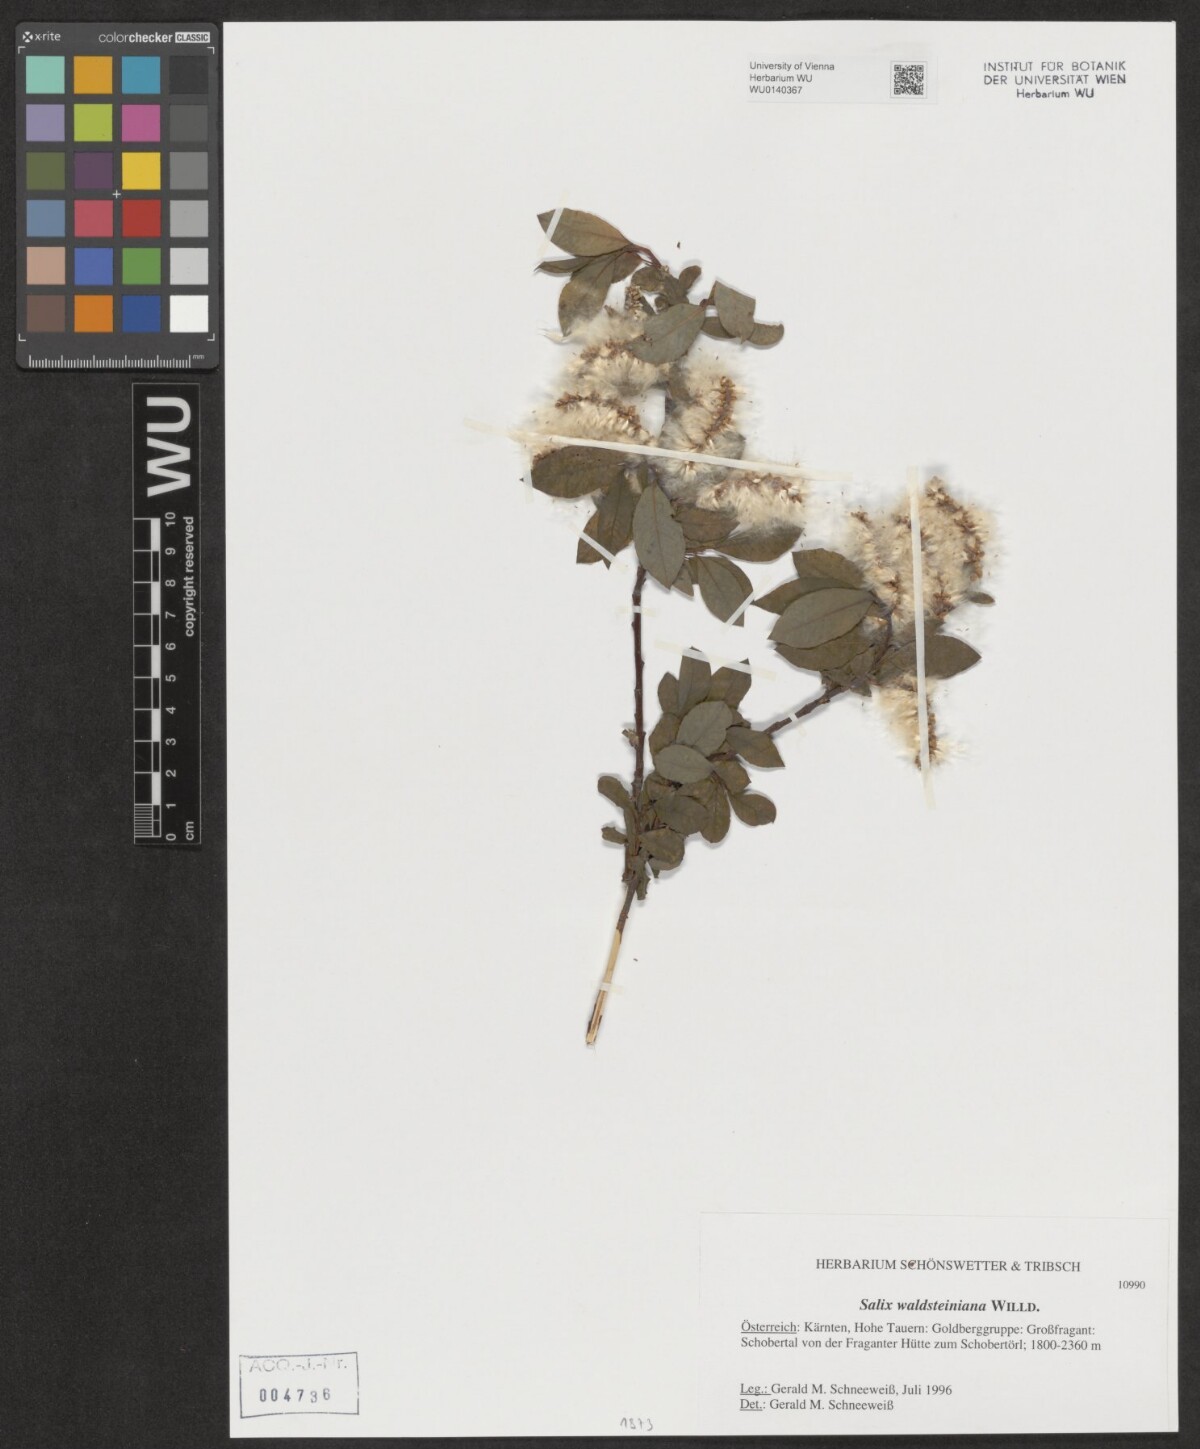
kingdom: Plantae
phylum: Tracheophyta
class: Magnoliopsida
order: Malpighiales
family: Salicaceae
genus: Salix
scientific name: Salix waldsteiniana
